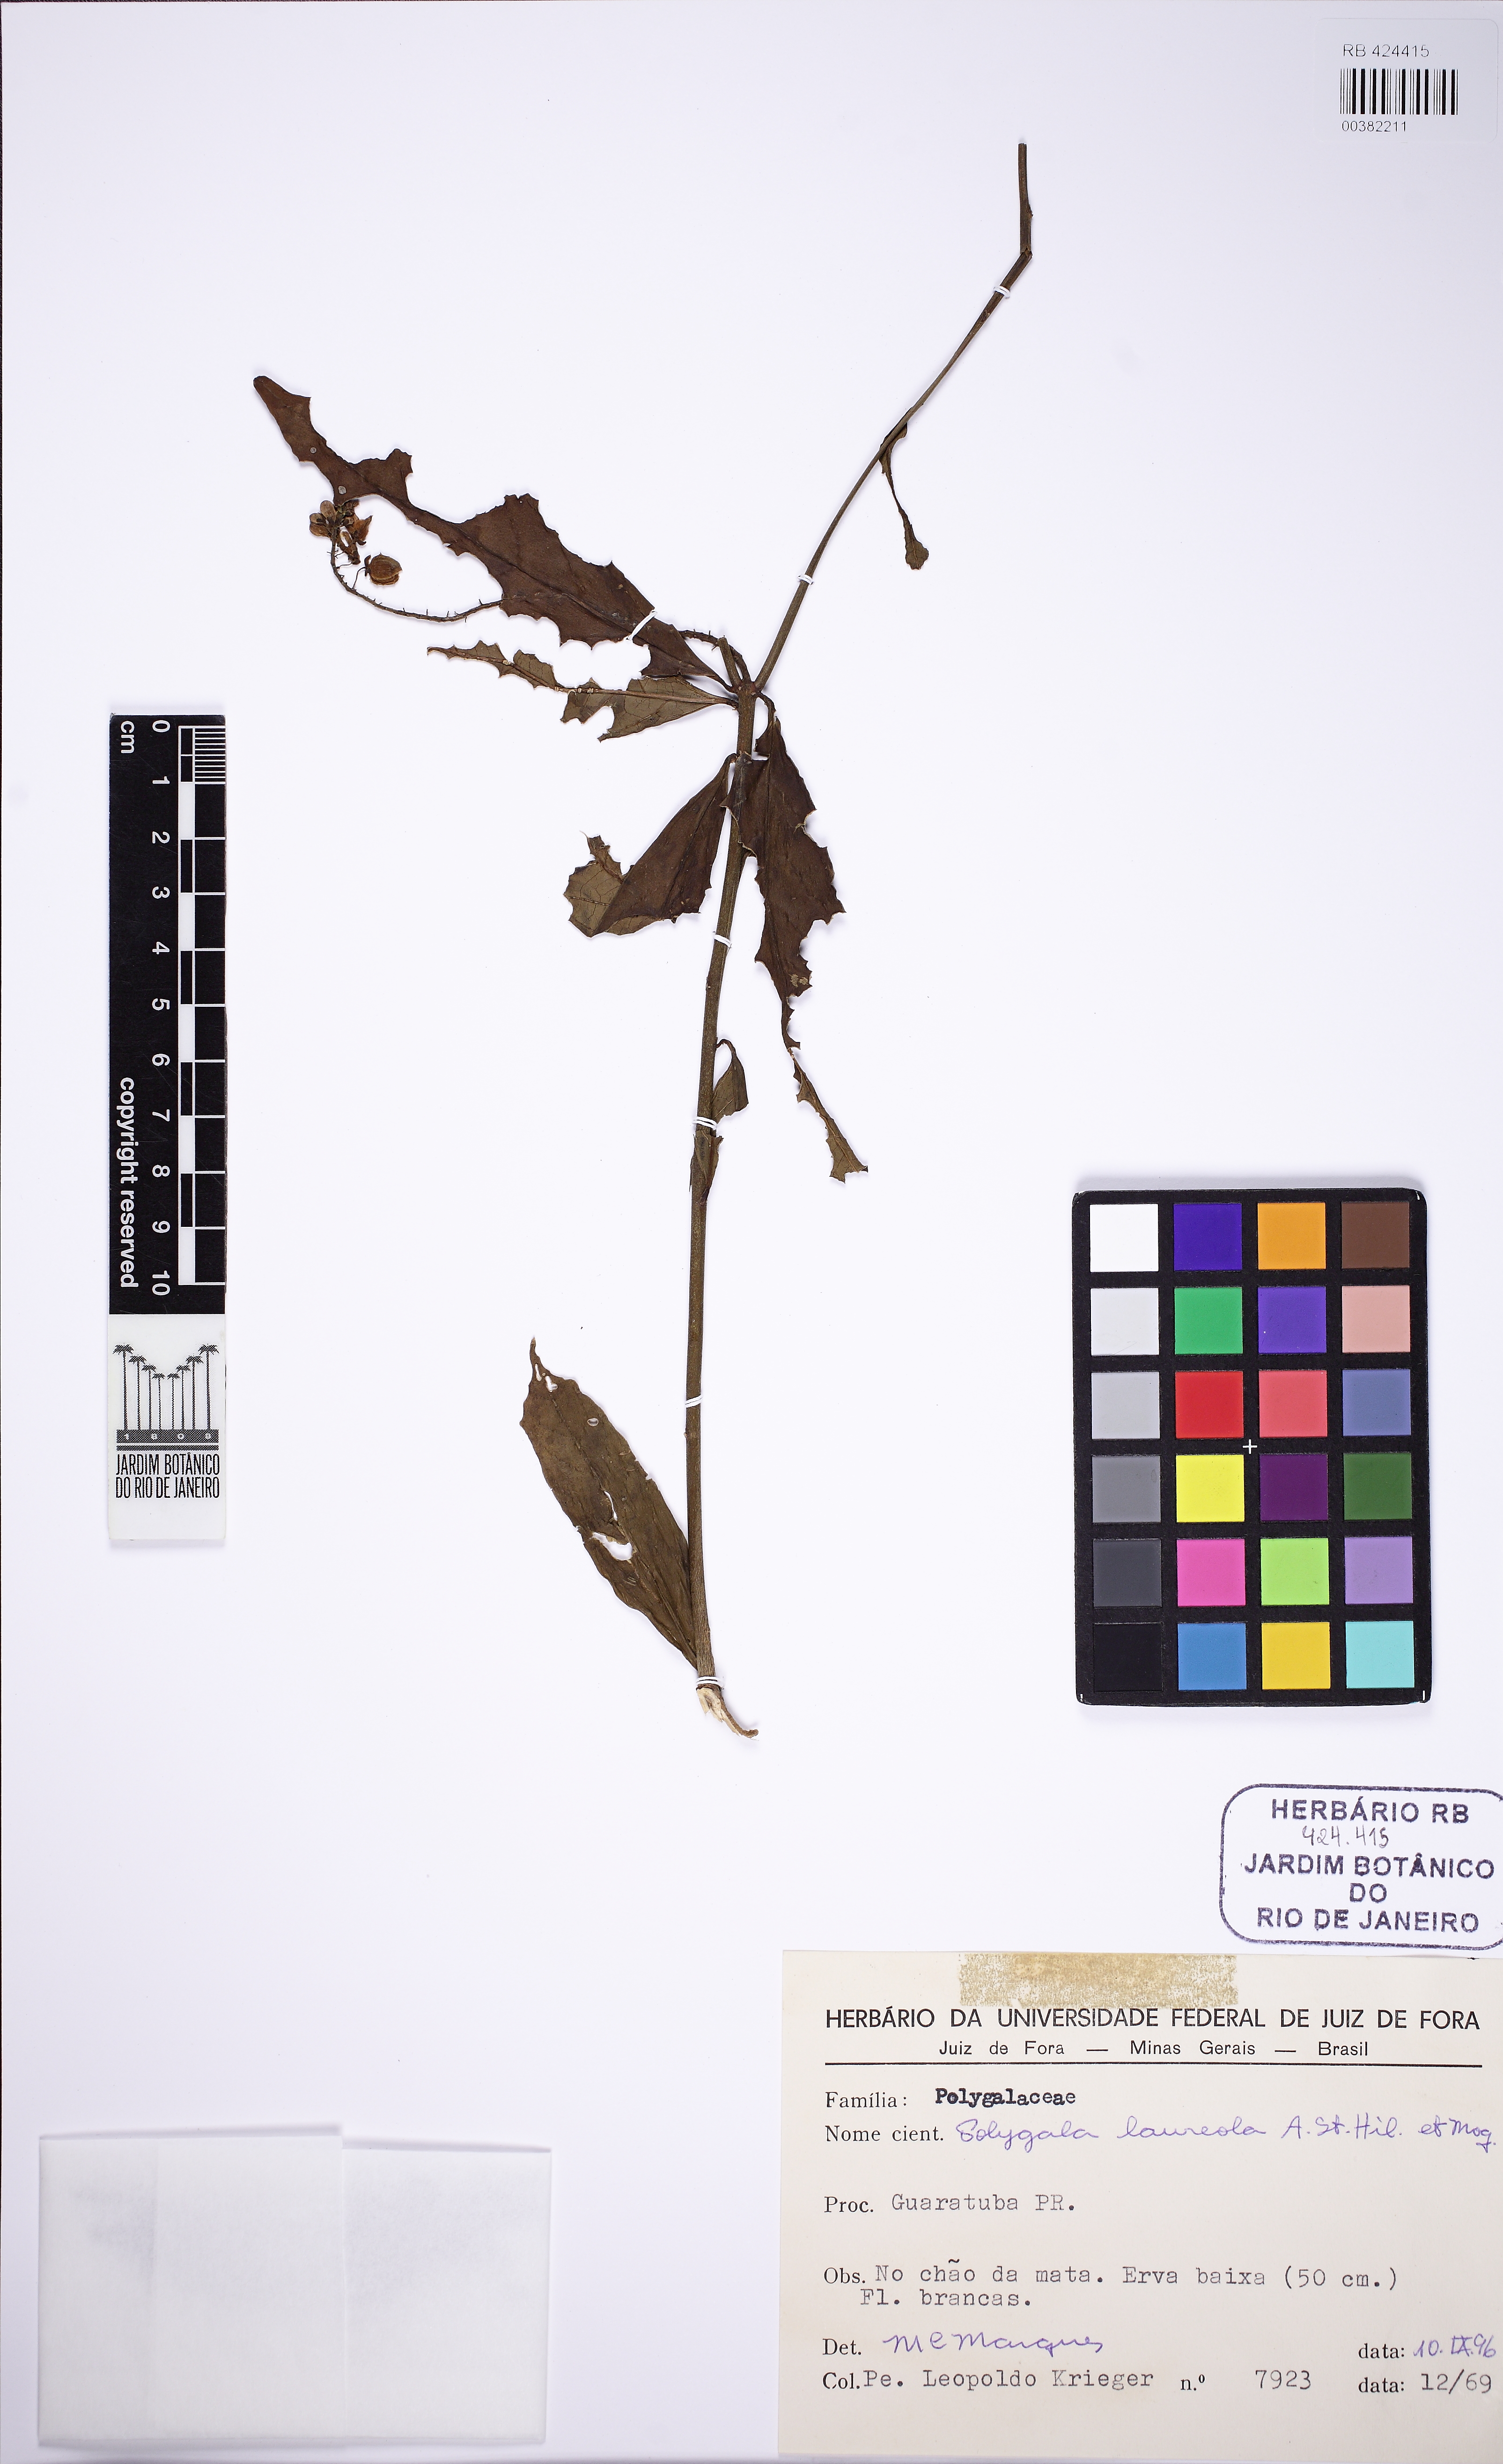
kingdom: Plantae
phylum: Tracheophyta
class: Magnoliopsida
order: Fabales
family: Polygalaceae
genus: Caamembeca
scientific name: Caamembeca salicifolia
